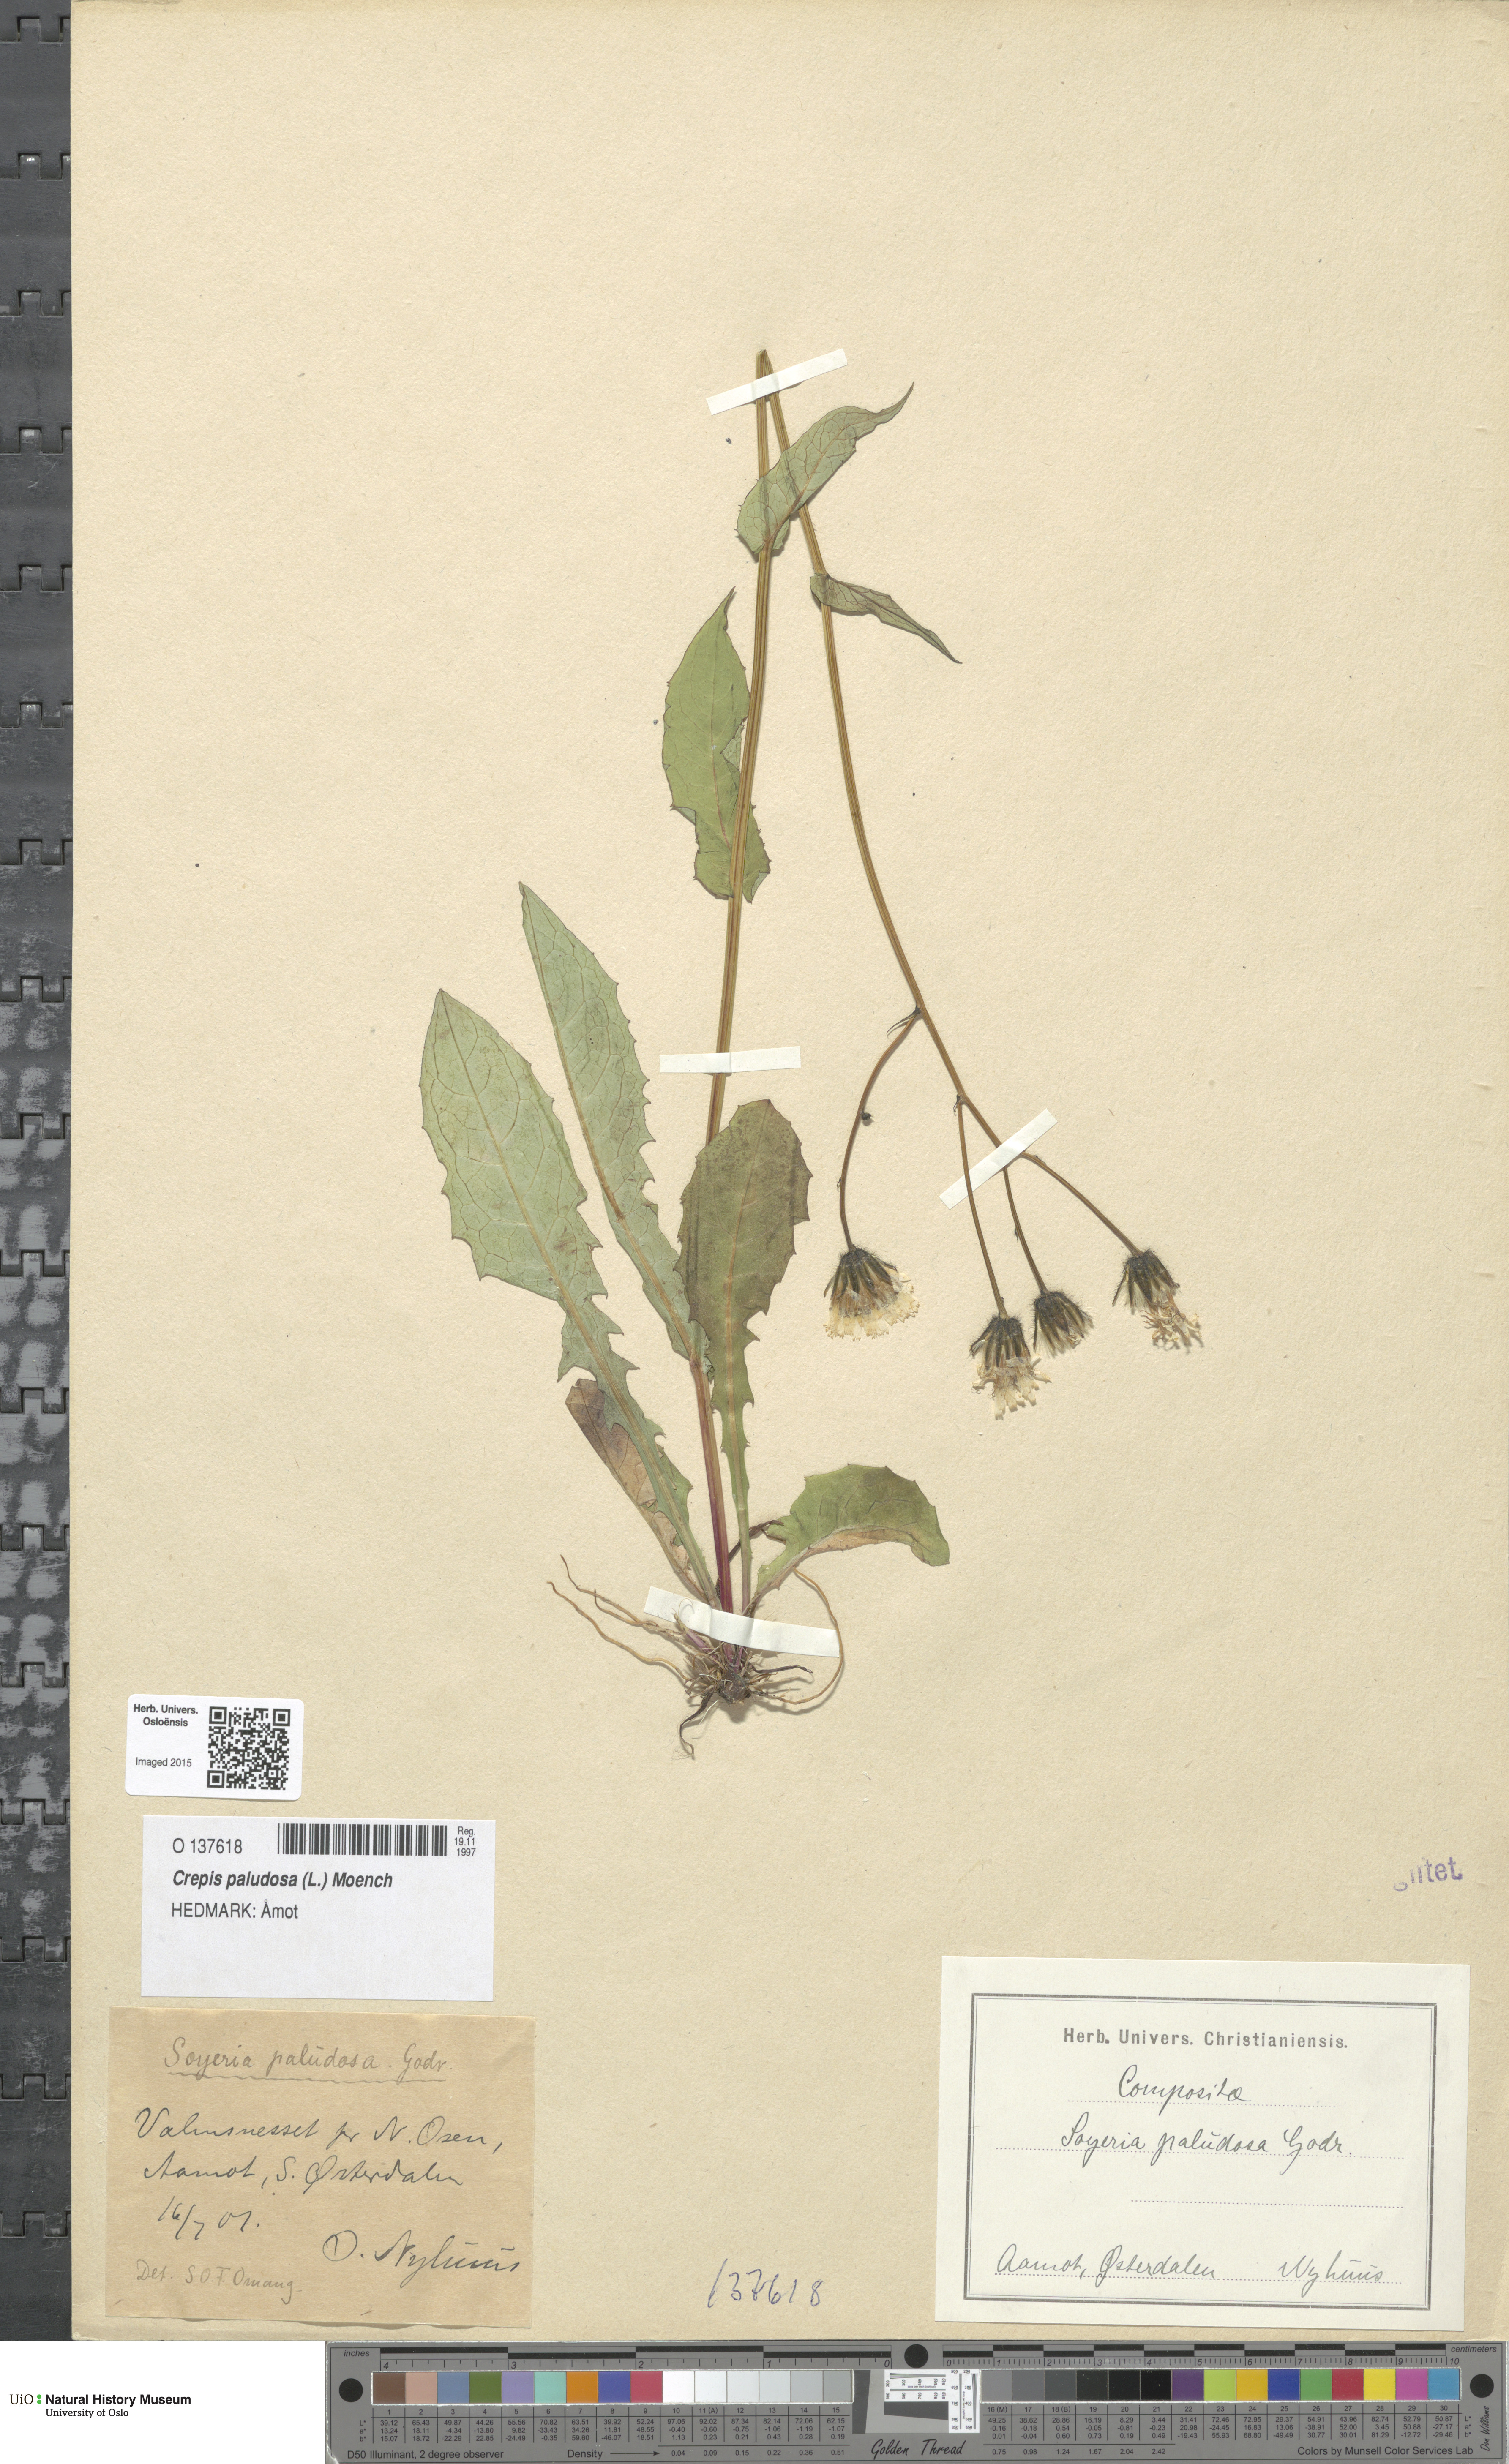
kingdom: Plantae
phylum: Tracheophyta
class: Magnoliopsida
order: Asterales
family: Asteraceae
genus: Crepis
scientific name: Crepis paludosa
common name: Marsh hawk's-beard
